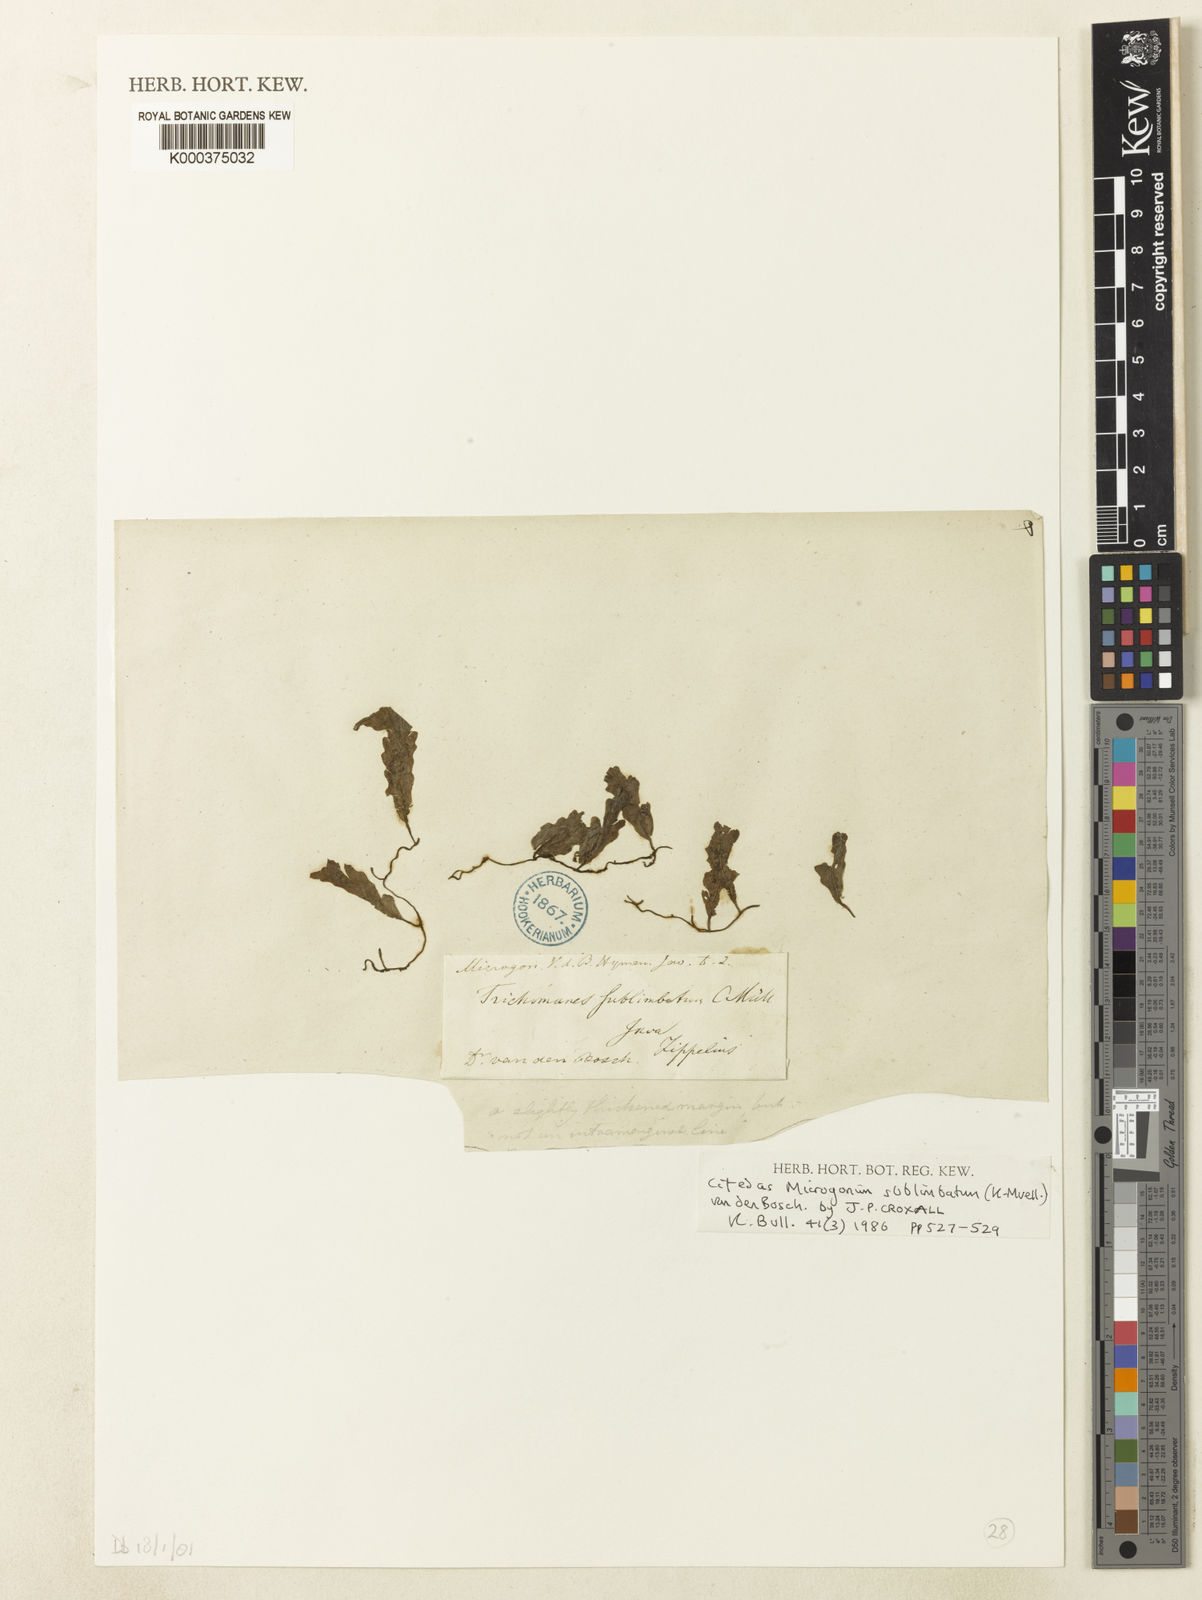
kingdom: Plantae
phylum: Tracheophyta
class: Polypodiopsida
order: Hymenophyllales
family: Hymenophyllaceae
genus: Trichomanes
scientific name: Trichomanes
